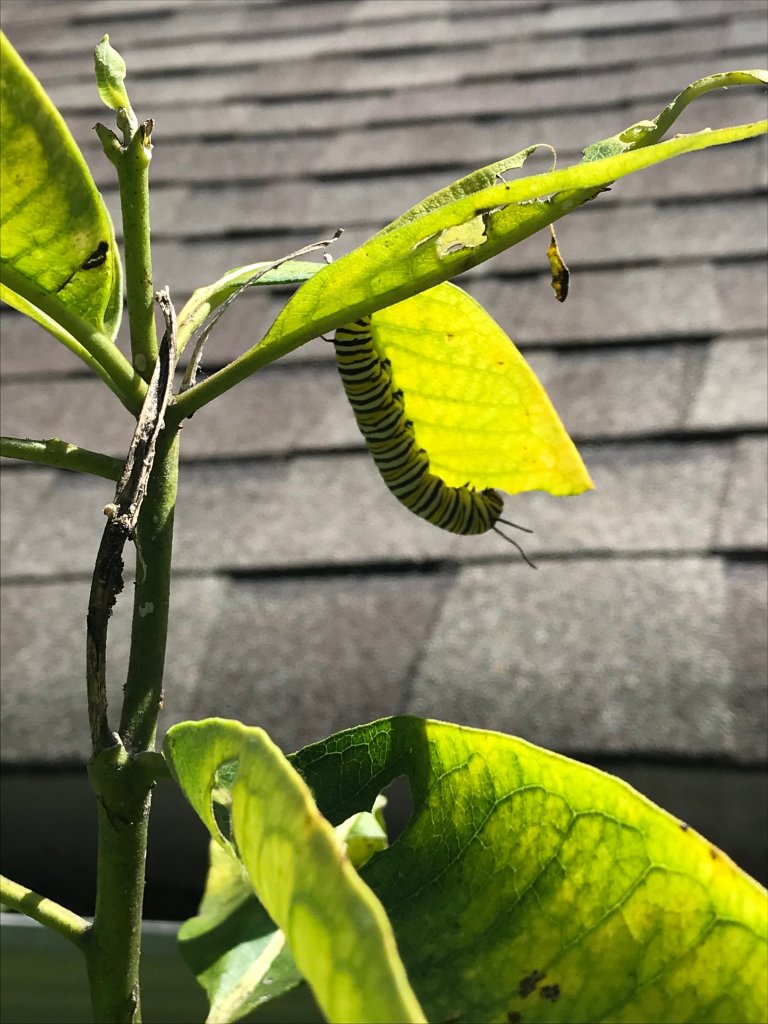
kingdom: Animalia
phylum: Arthropoda
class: Insecta
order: Lepidoptera
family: Nymphalidae
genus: Danaus
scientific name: Danaus plexippus
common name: Monarch
